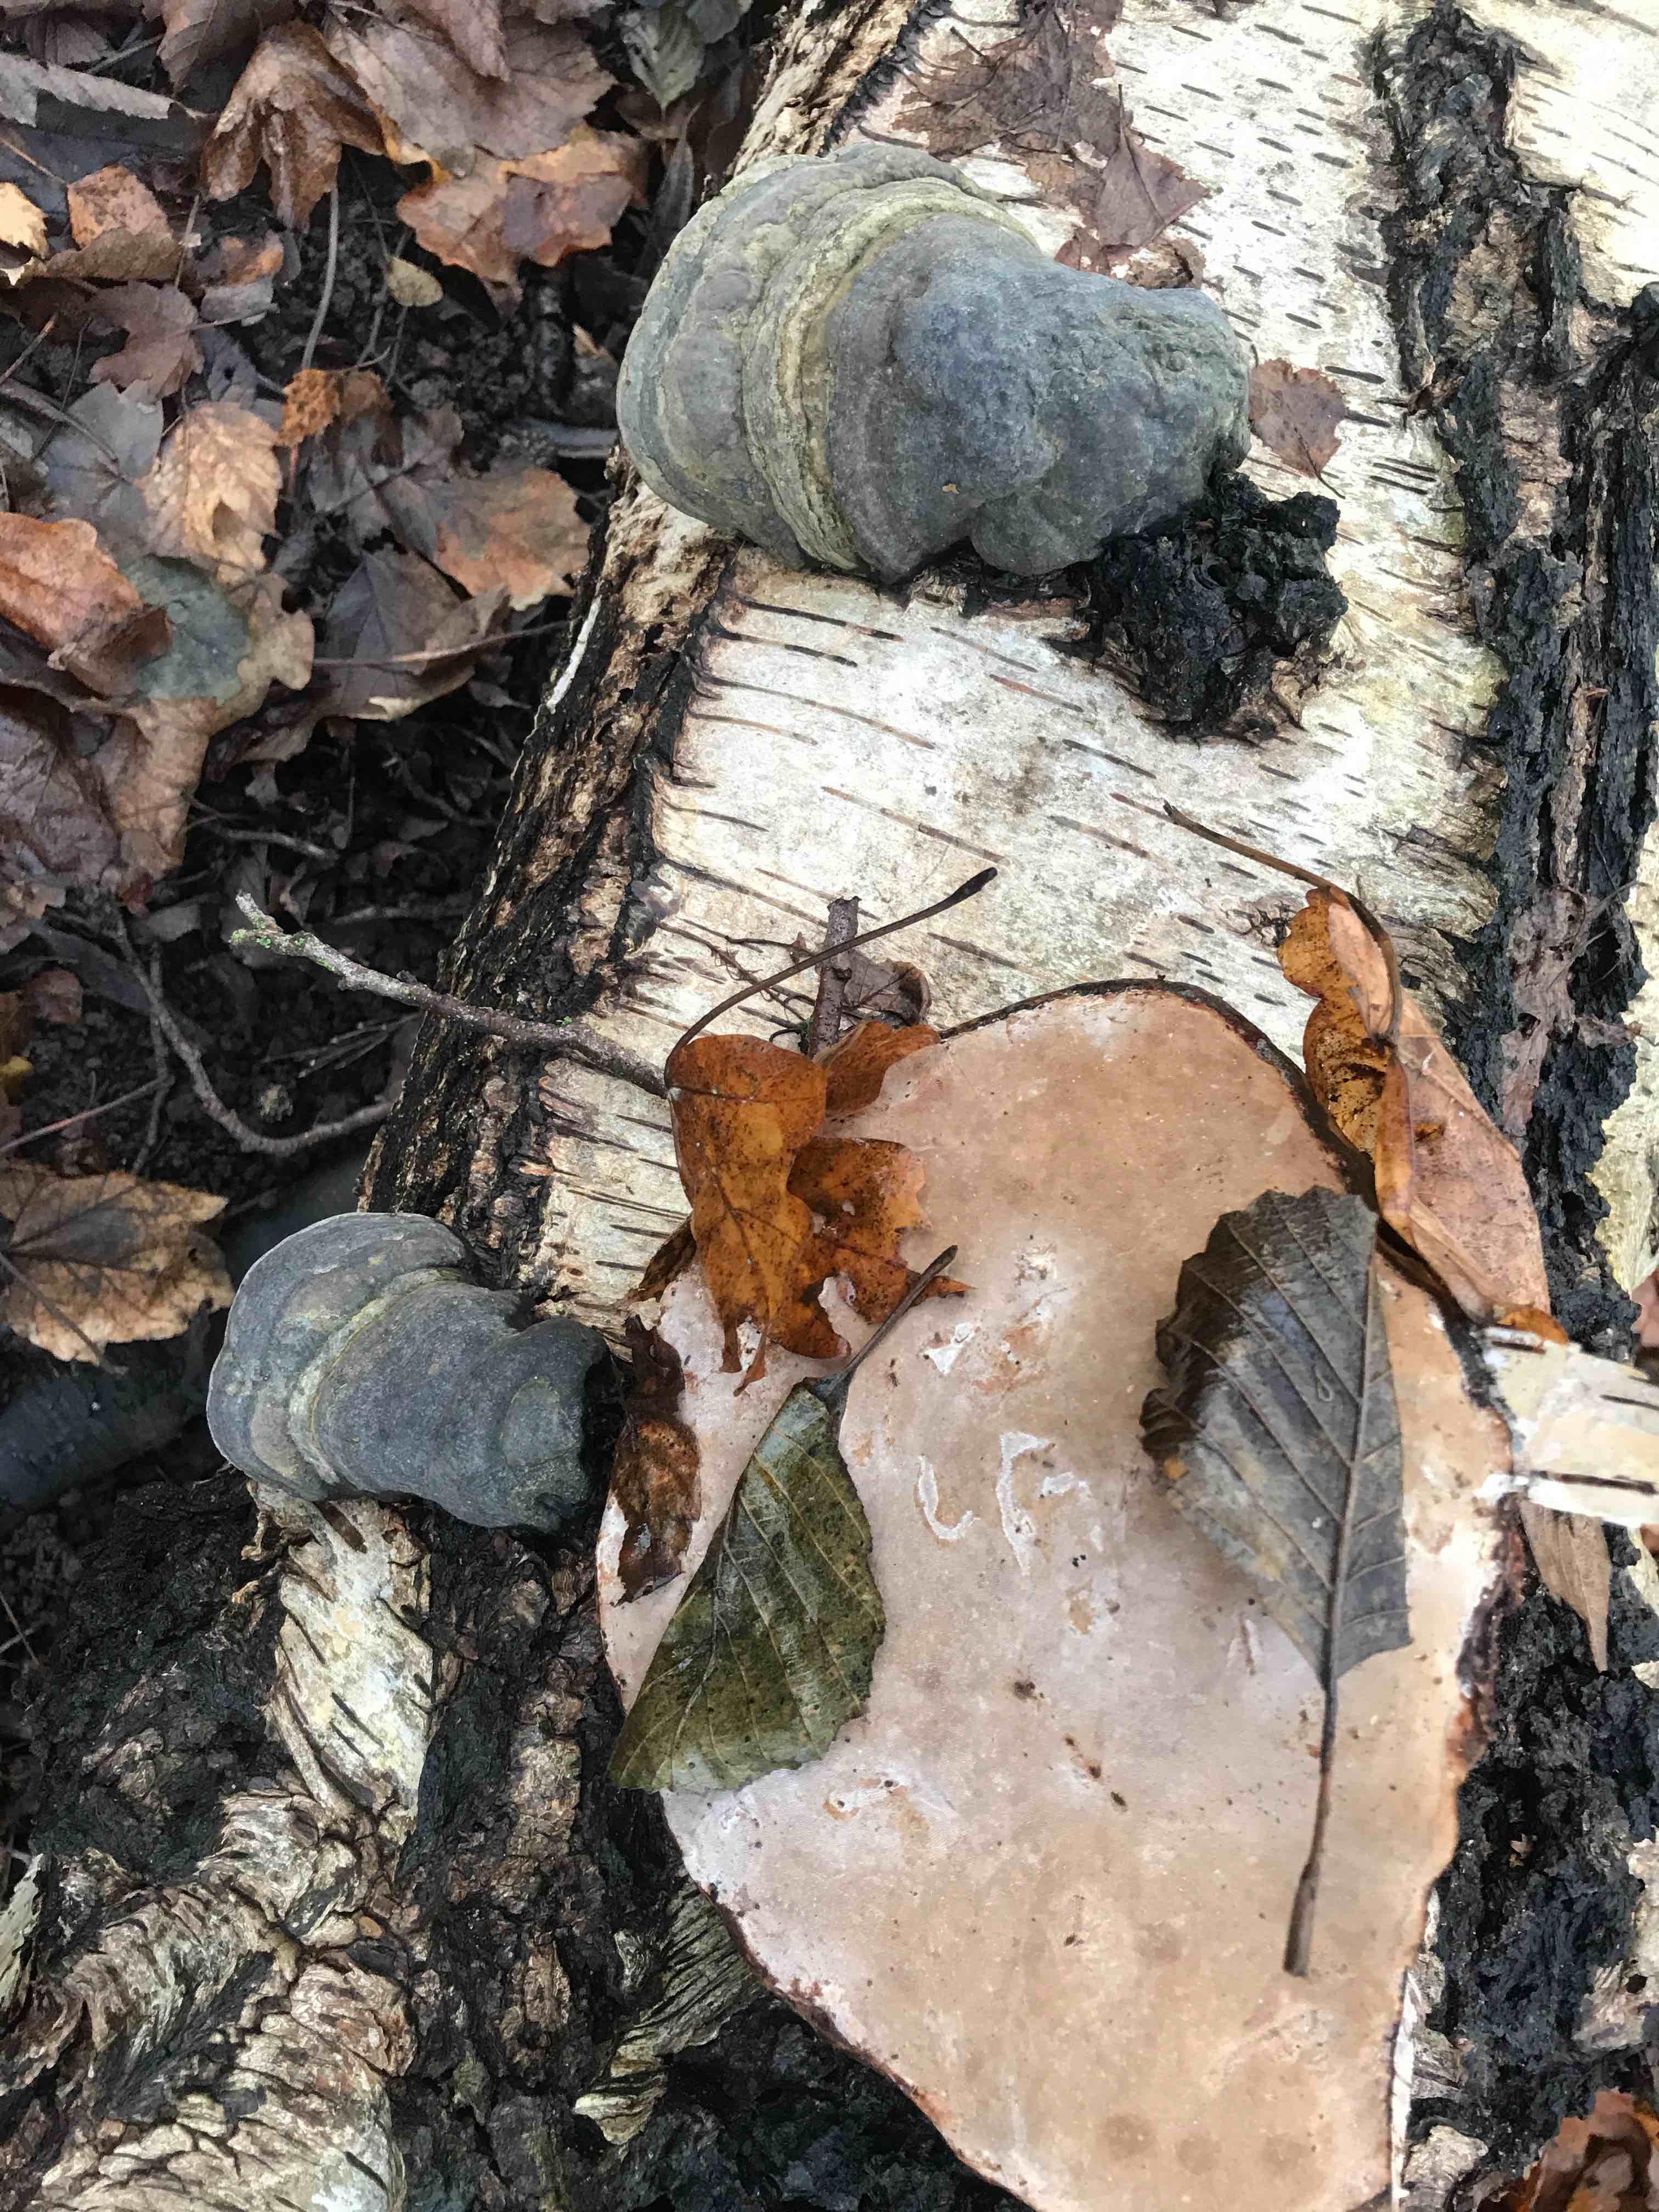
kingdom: Fungi
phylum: Basidiomycota
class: Agaricomycetes
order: Polyporales
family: Polyporaceae
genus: Fomes
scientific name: Fomes fomentarius
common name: tøndersvamp
